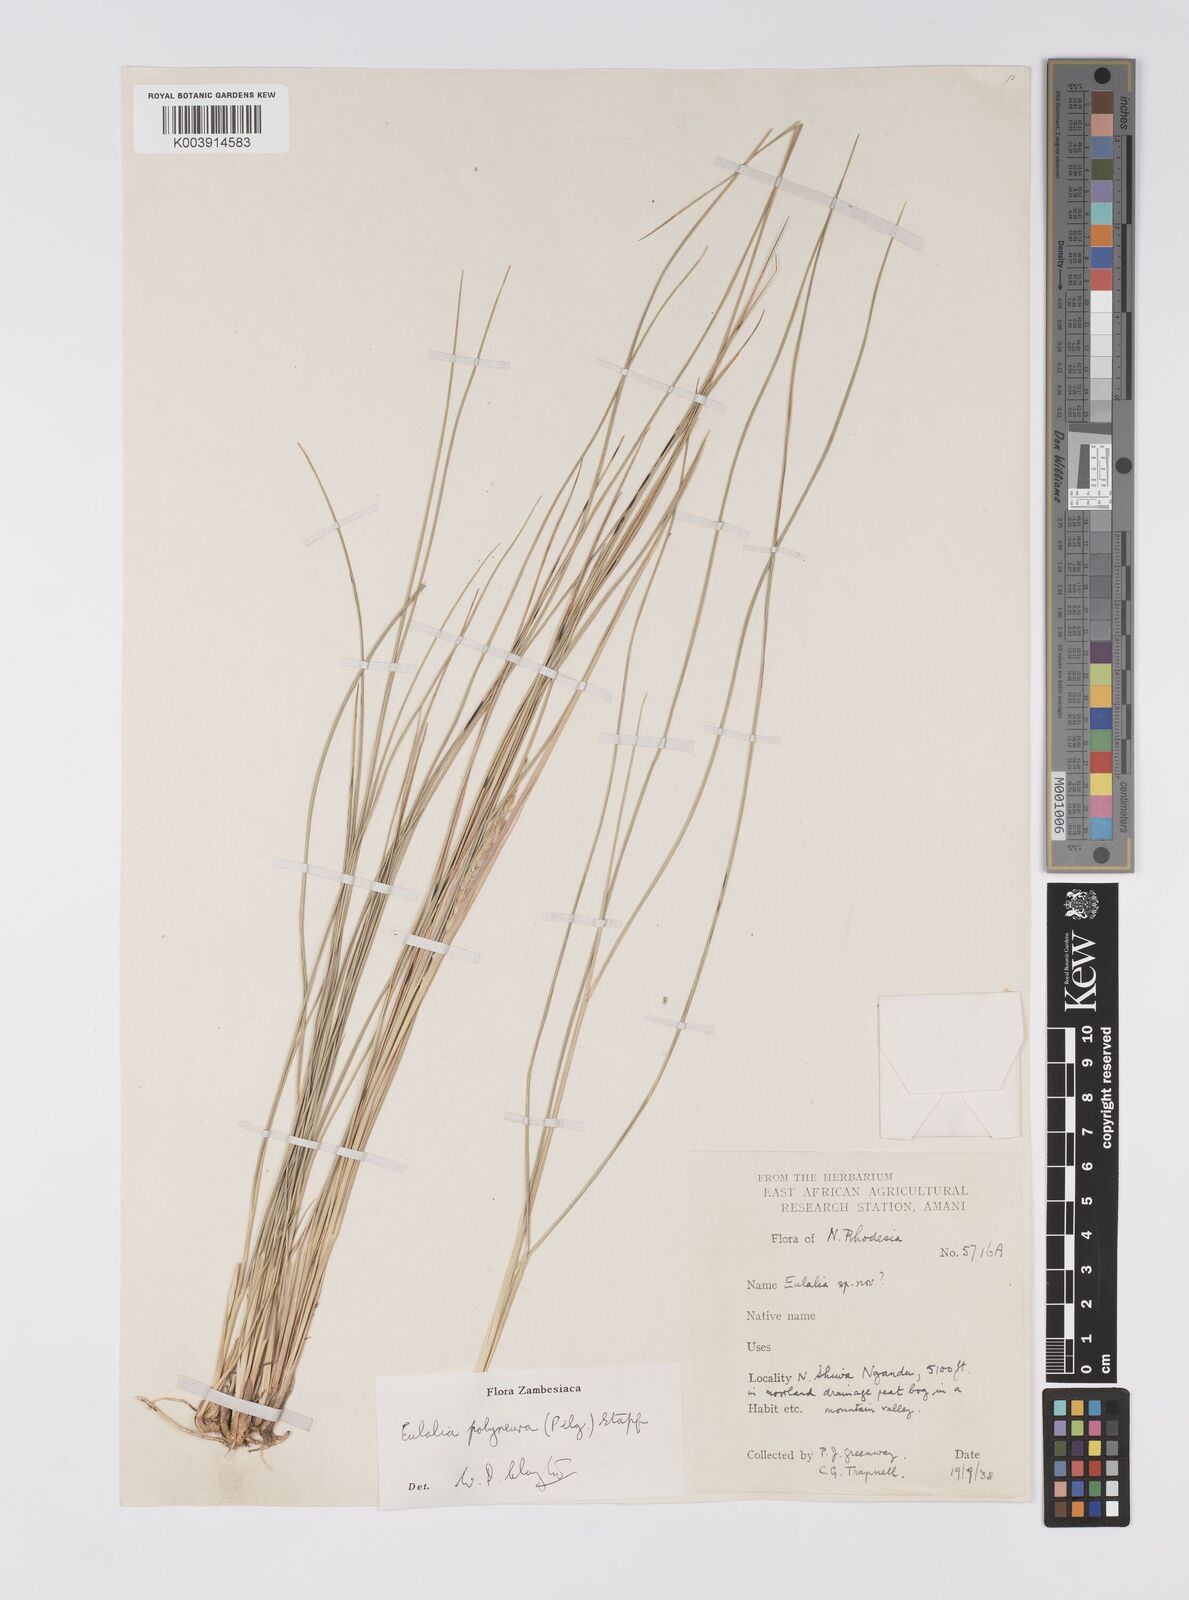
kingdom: Plantae
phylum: Tracheophyta
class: Liliopsida
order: Poales
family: Poaceae
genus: Eulalia
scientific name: Eulalia polyneura
